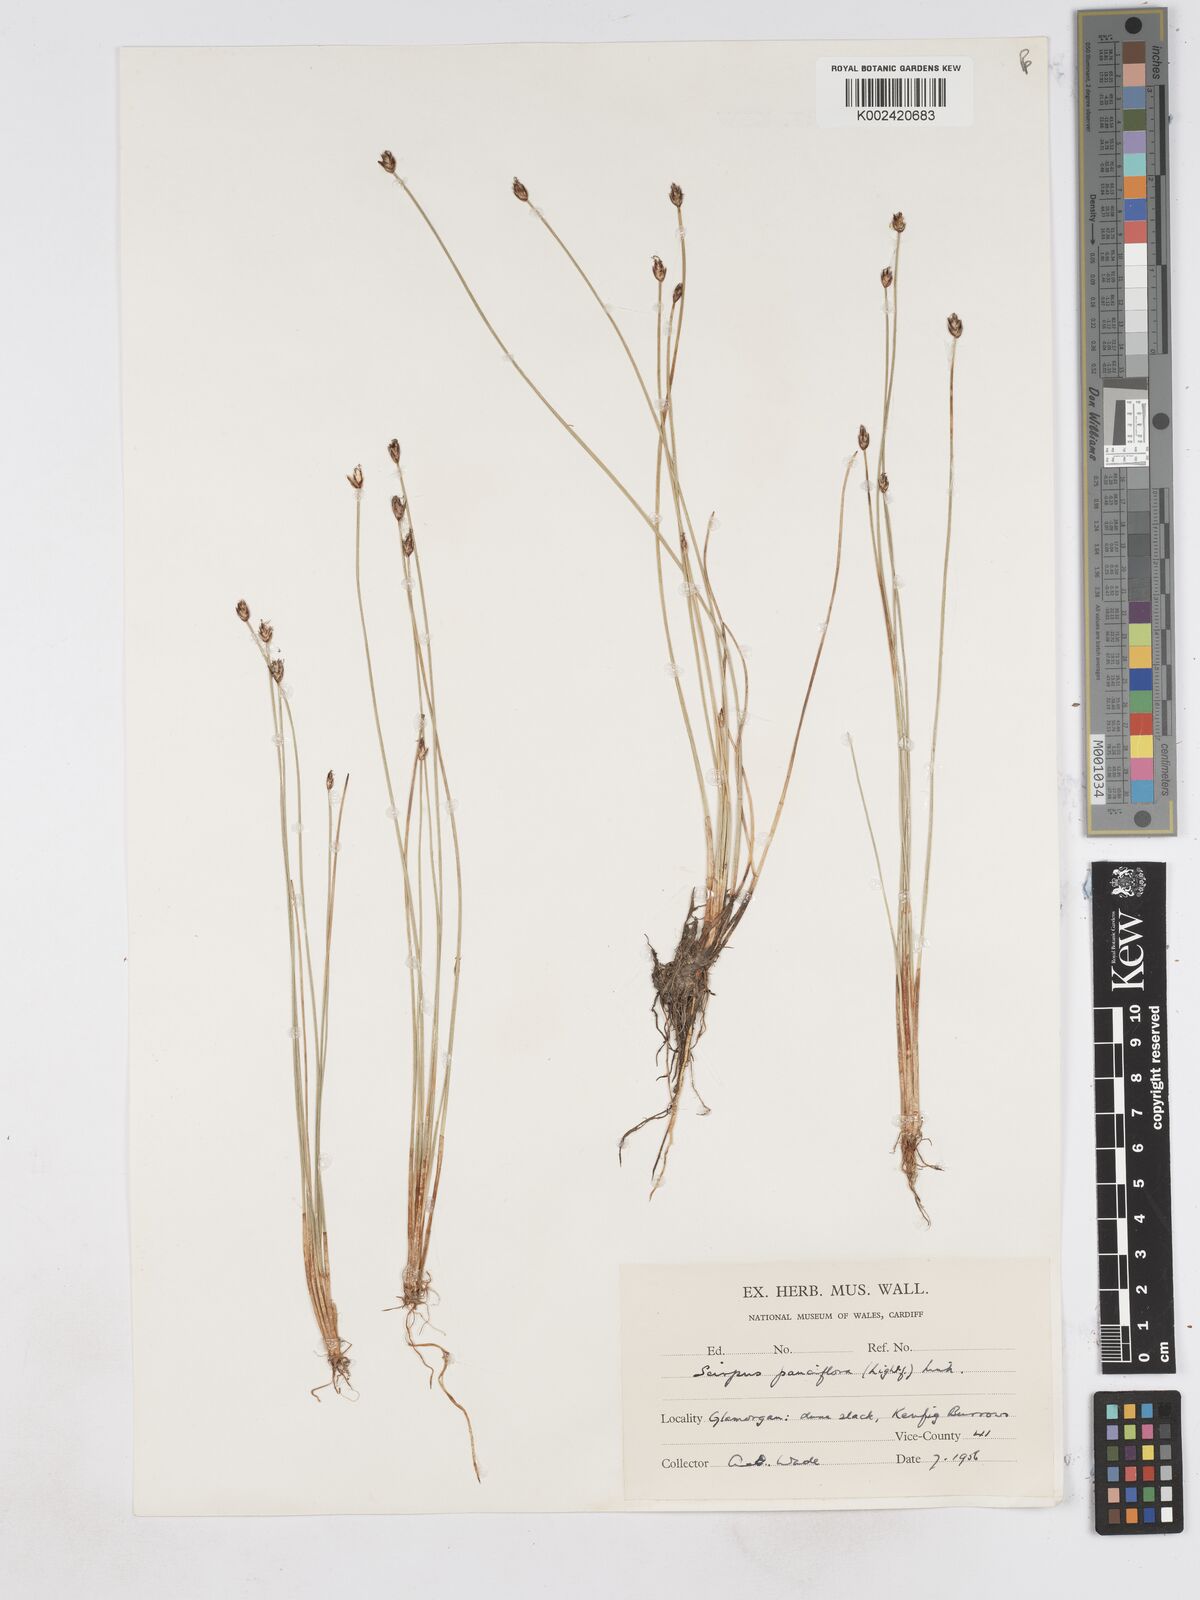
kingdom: Plantae
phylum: Tracheophyta
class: Liliopsida
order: Poales
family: Cyperaceae
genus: Eleocharis
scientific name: Eleocharis quinqueflora
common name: Few-flowered spike-rush
